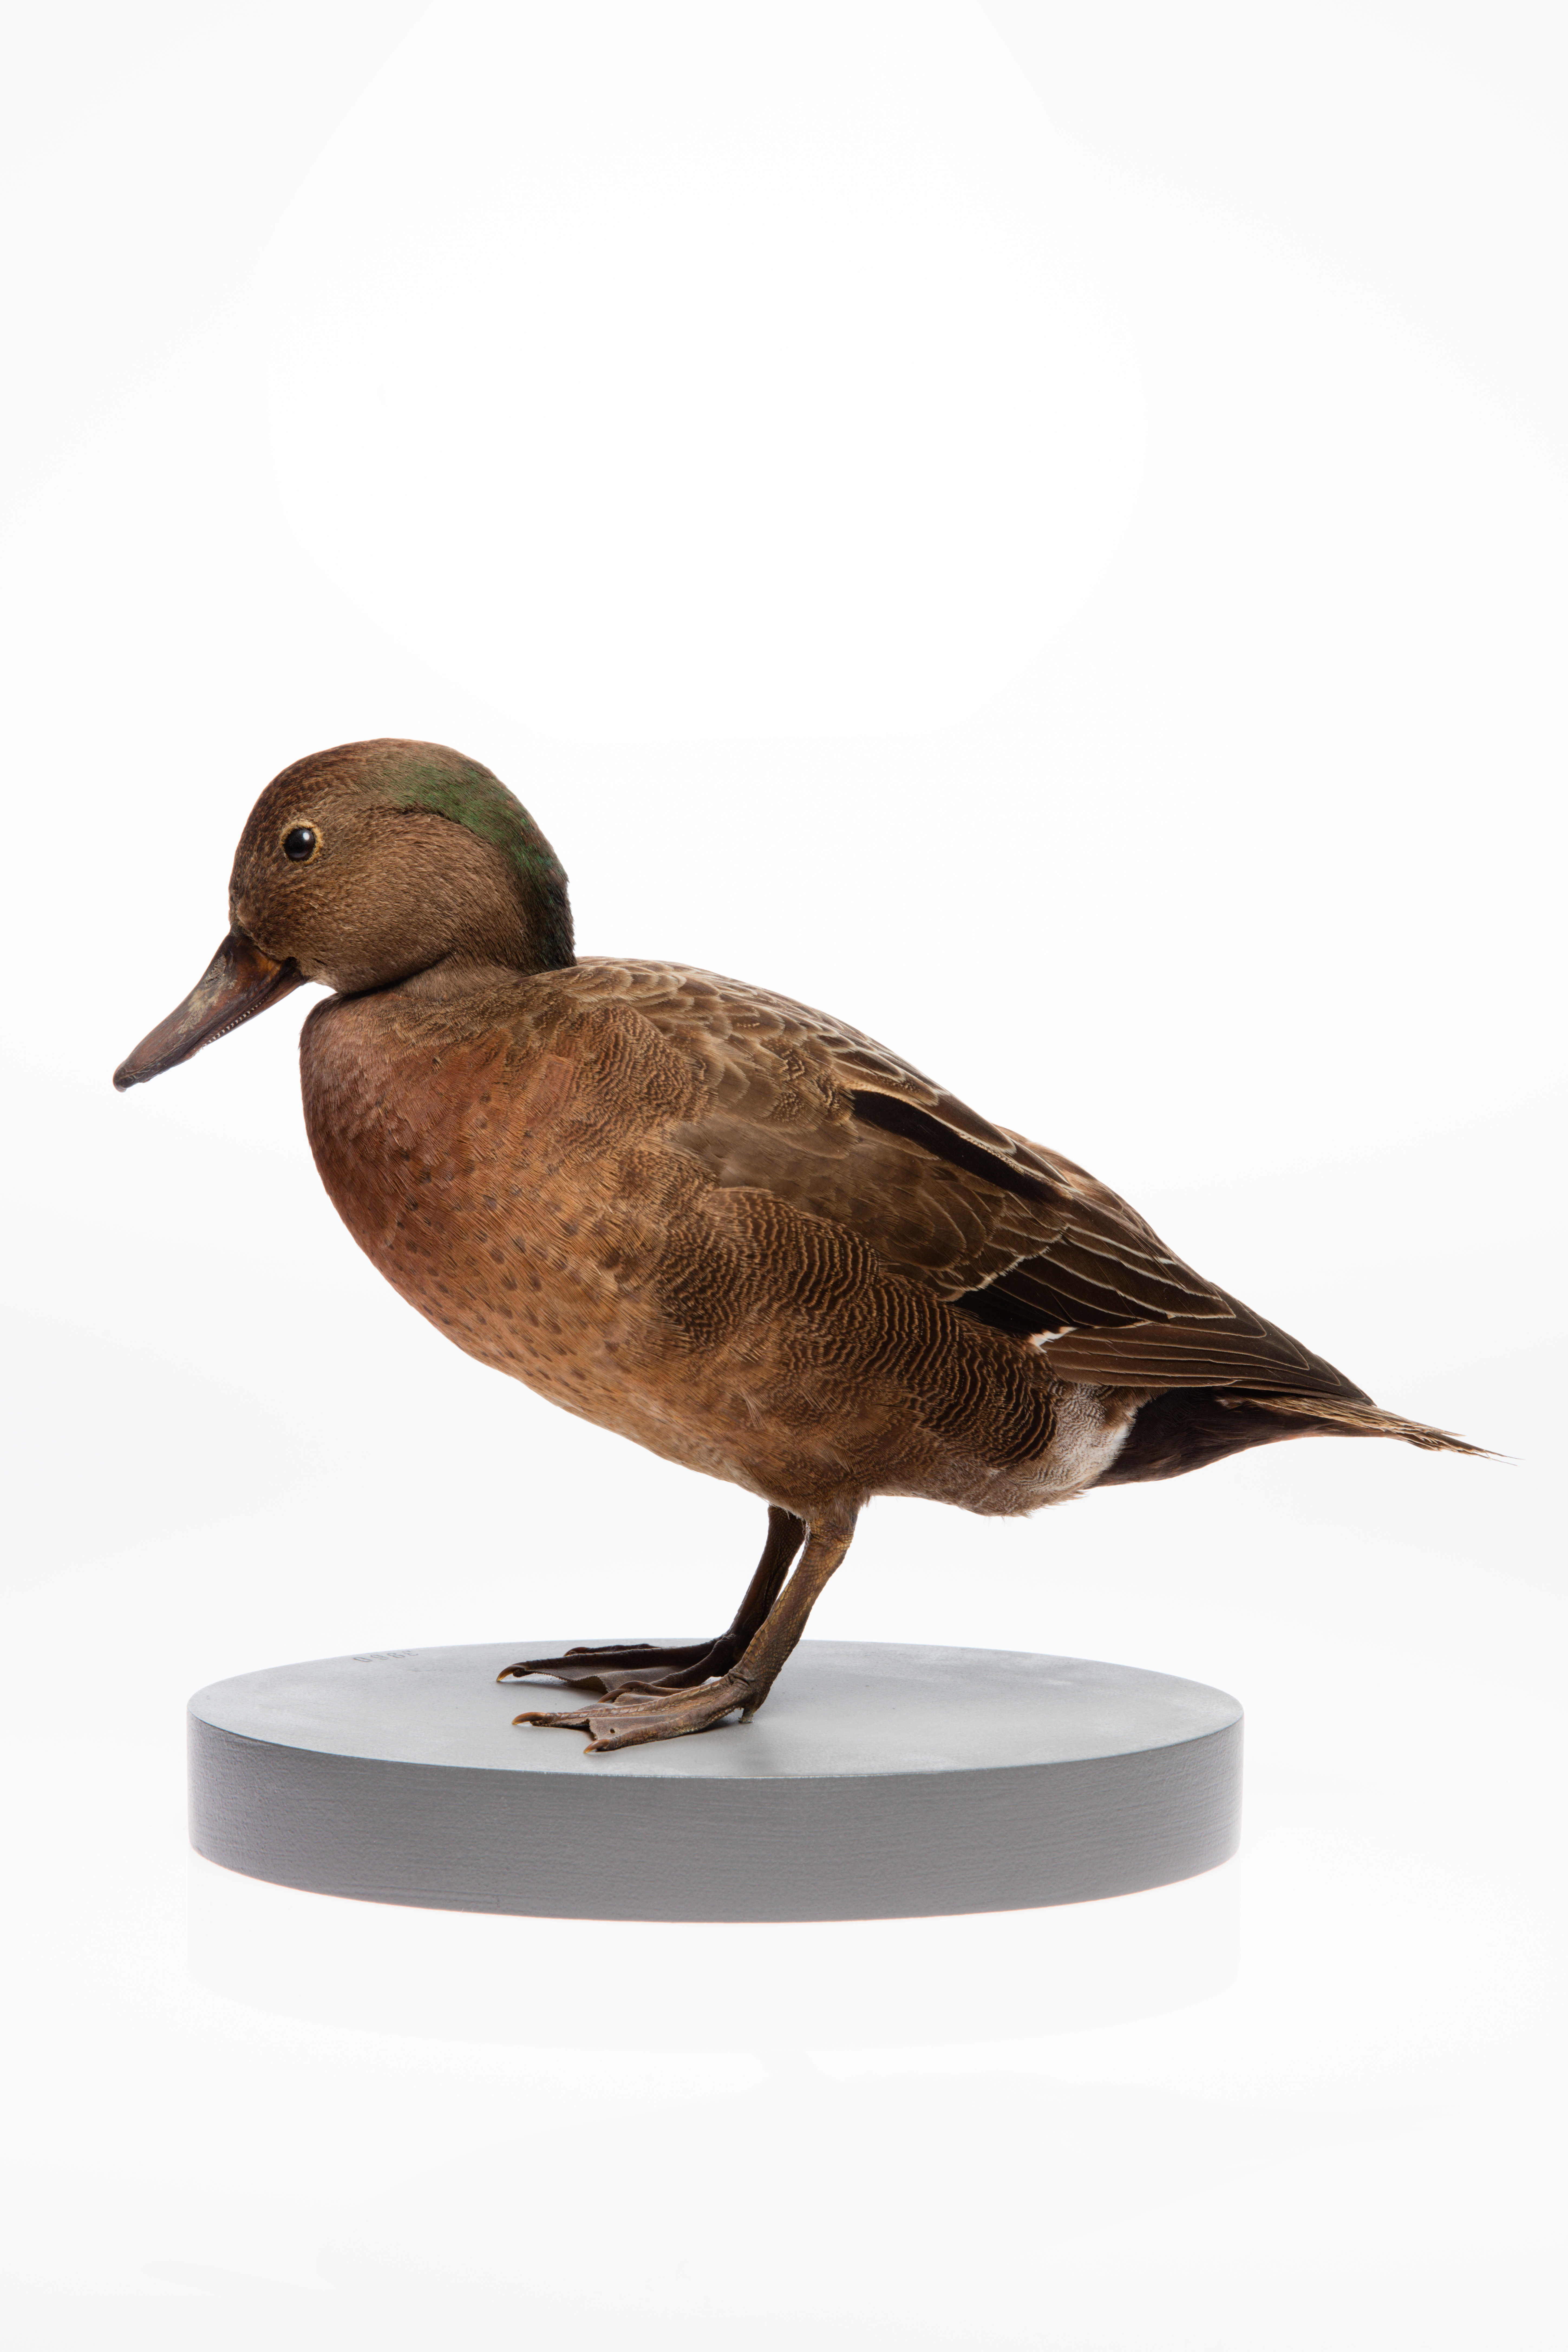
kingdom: Animalia
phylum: Chordata
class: Aves
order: Anseriformes
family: Anatidae
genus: Anas
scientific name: Anas chlorotis
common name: Brown teal
